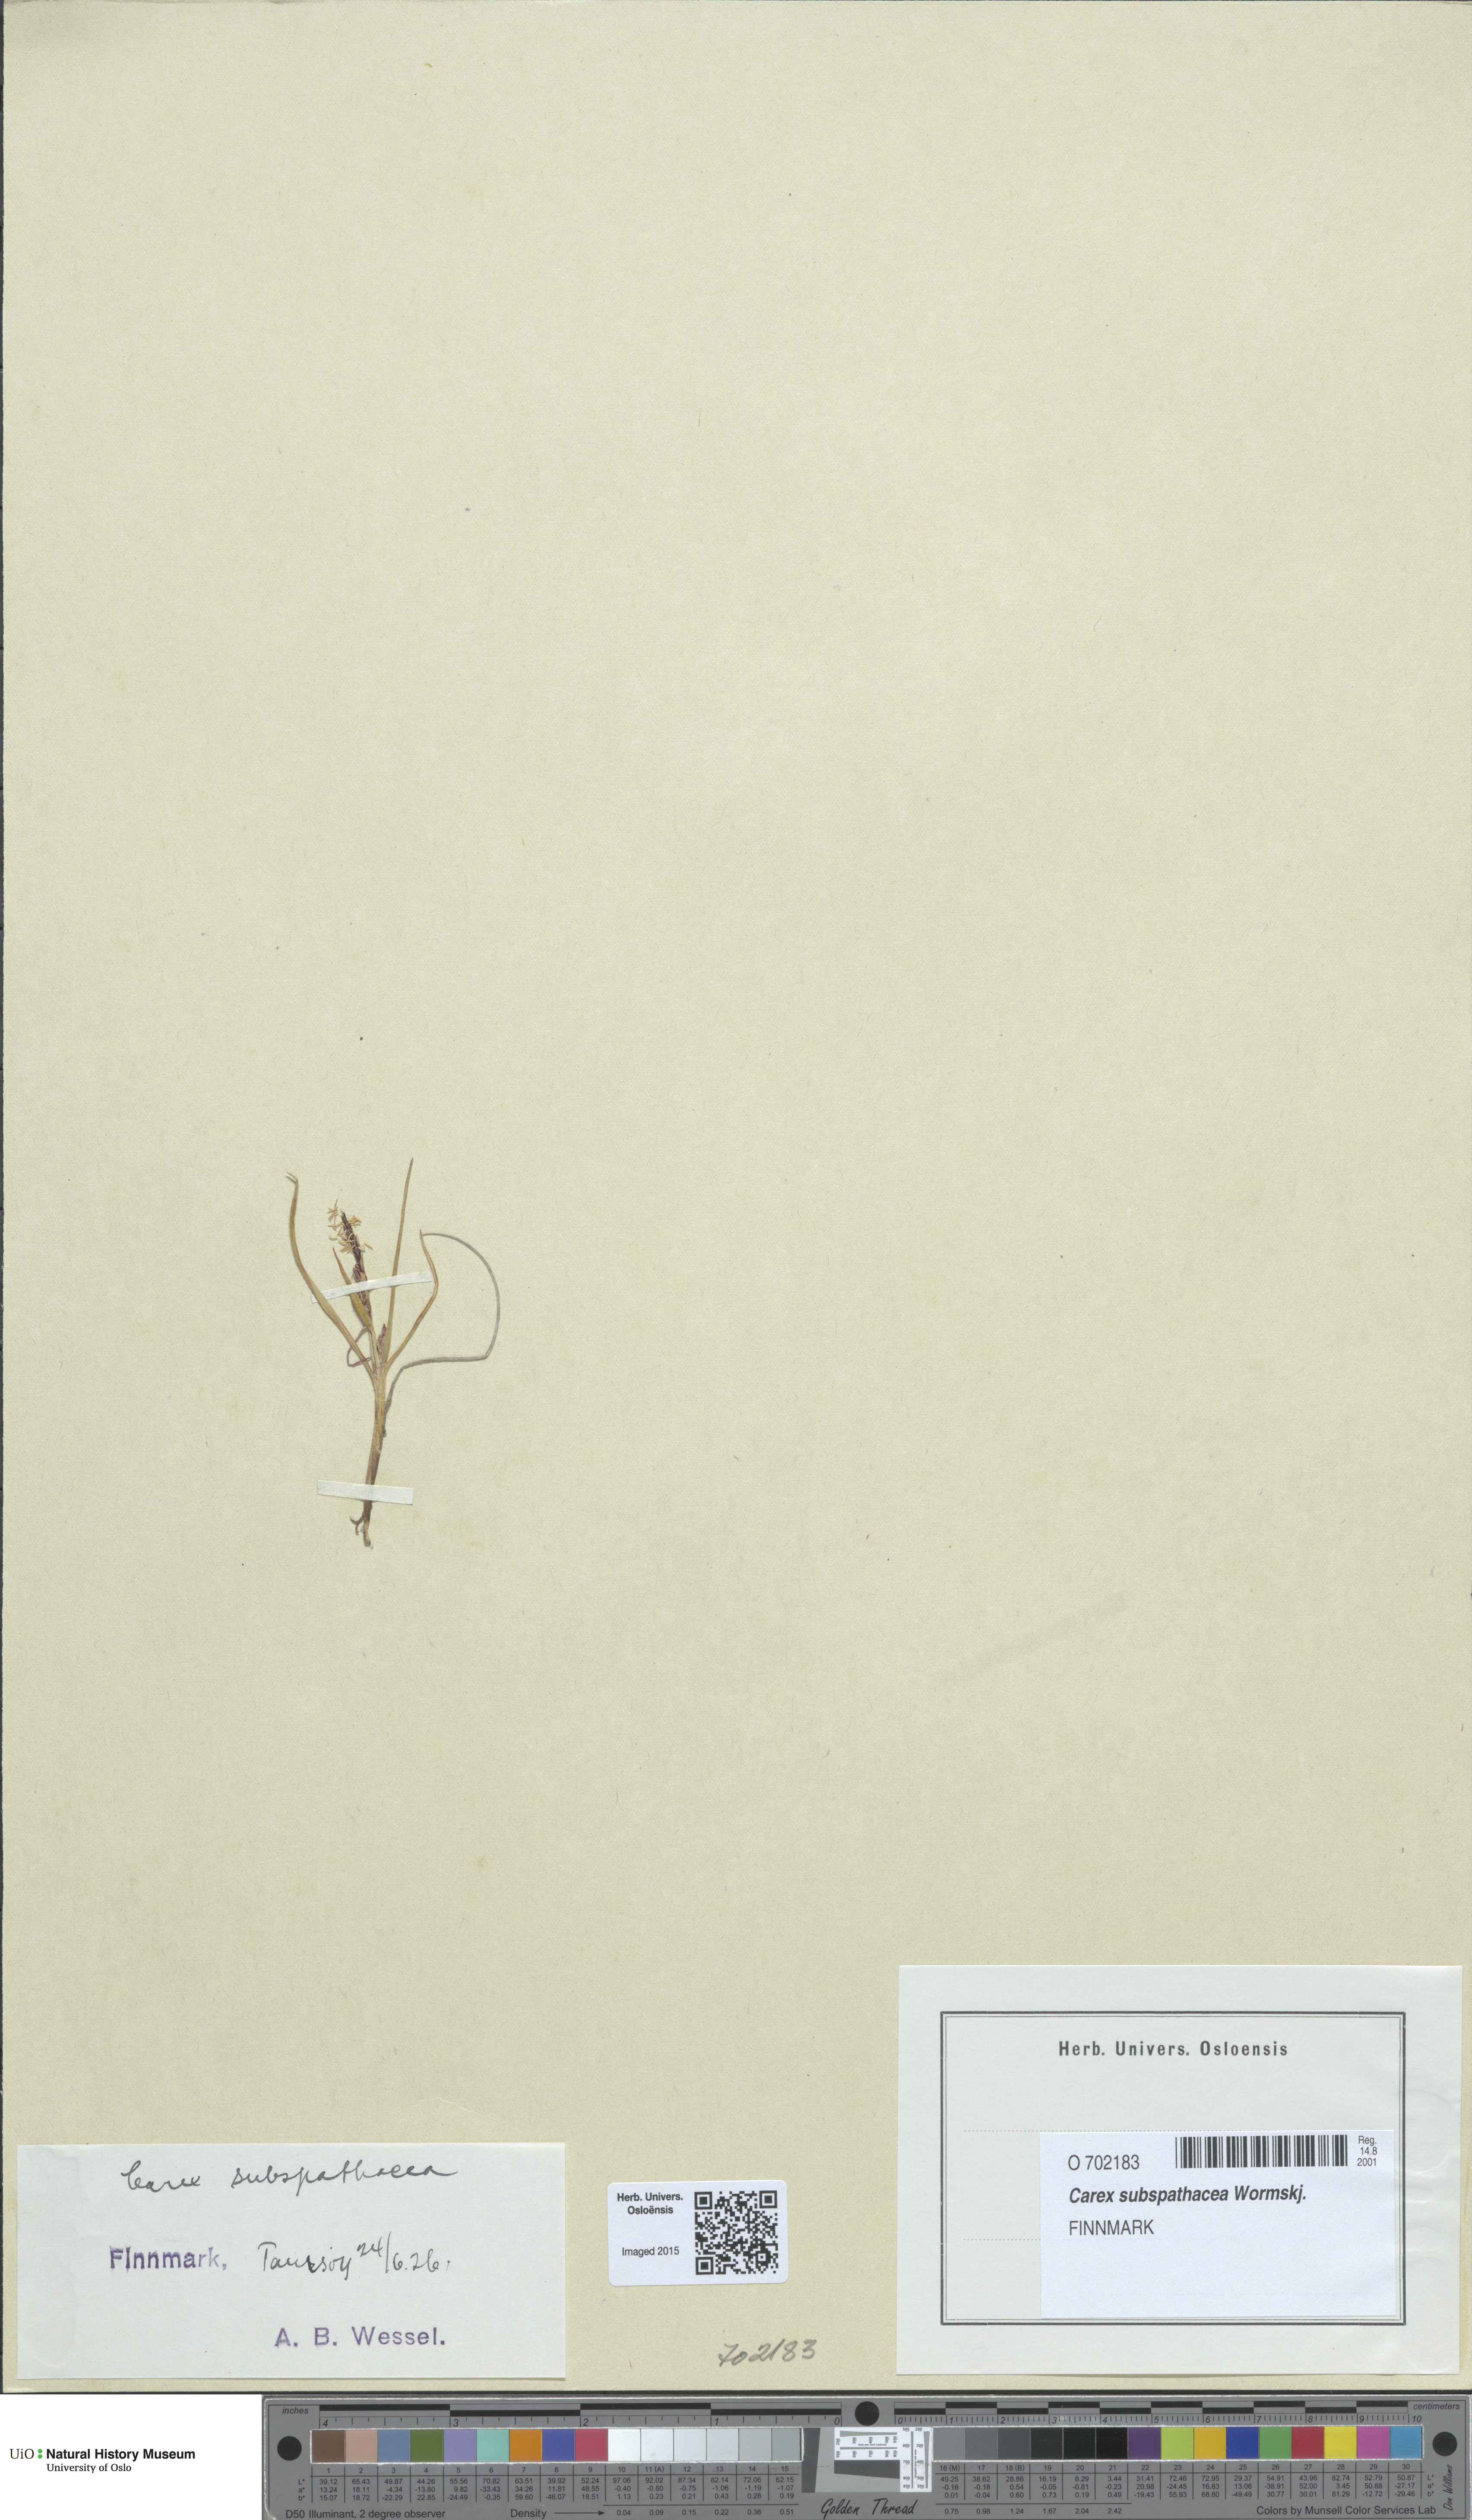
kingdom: Plantae
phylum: Tracheophyta
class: Liliopsida
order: Poales
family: Cyperaceae
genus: Carex
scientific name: Carex subspathacea
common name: Hoppner's sedge
